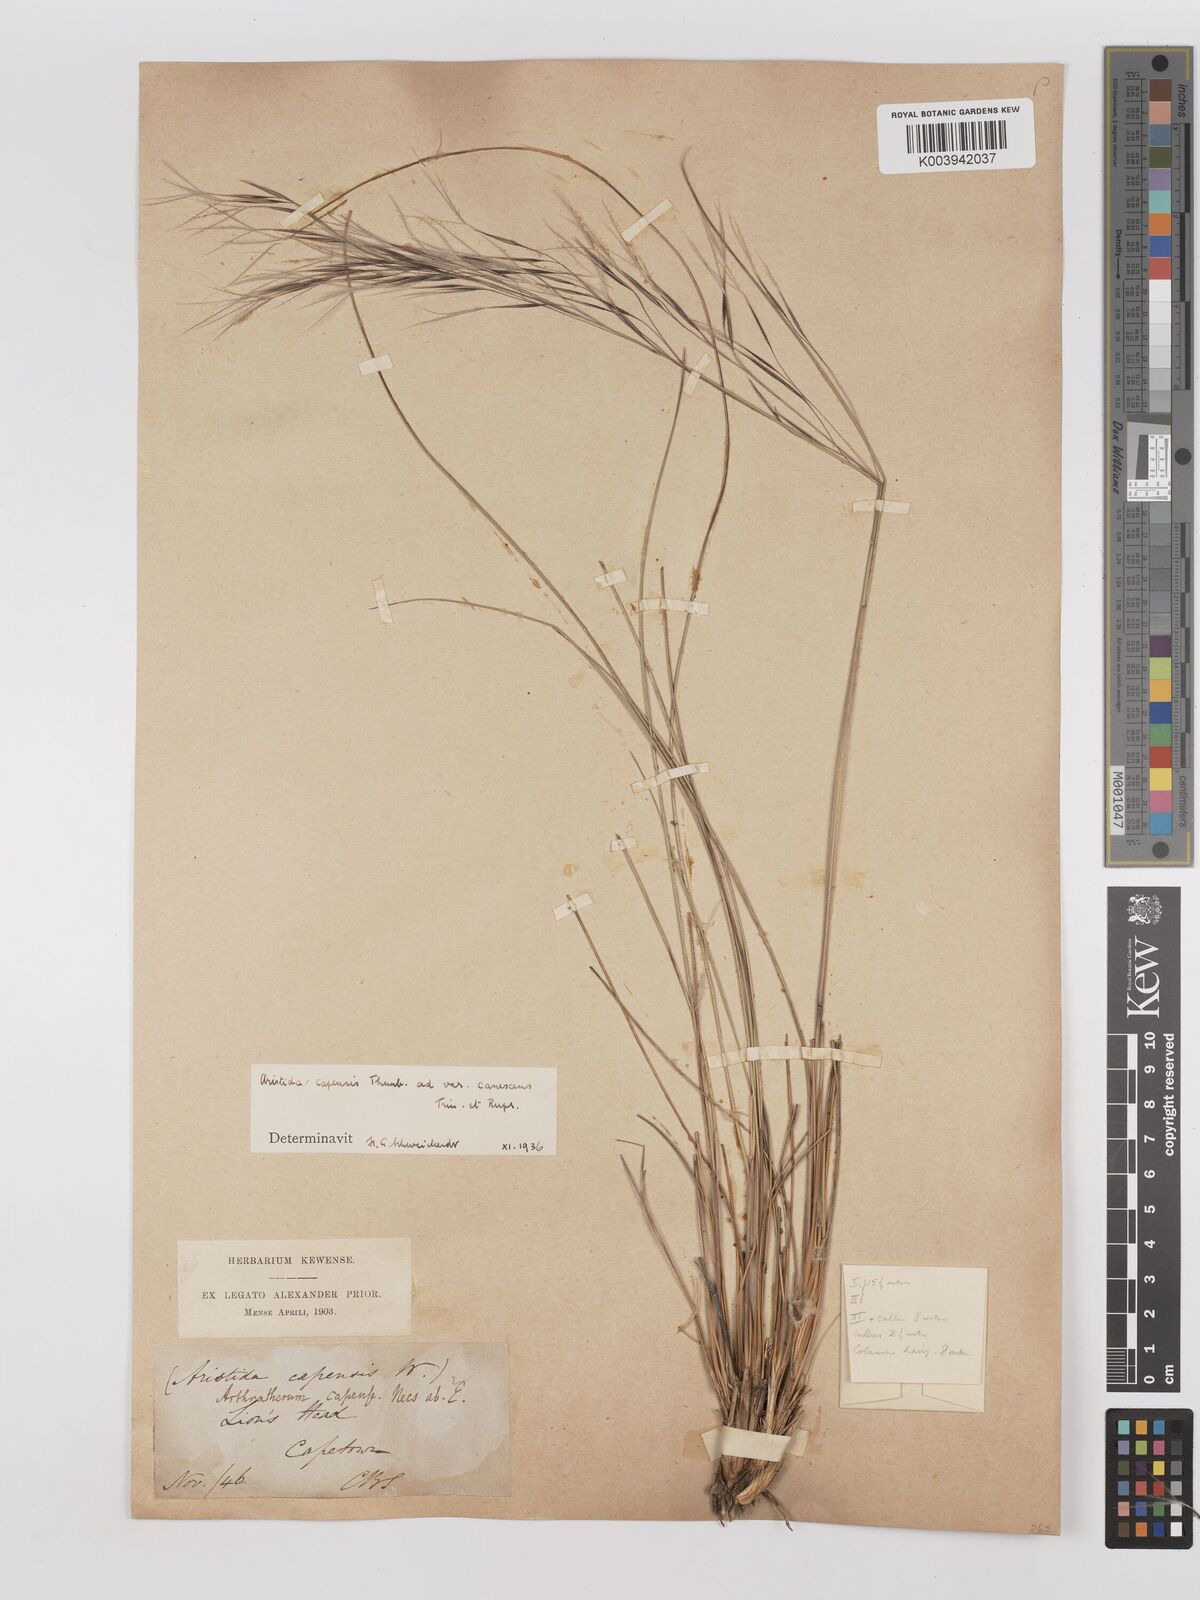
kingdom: Plantae
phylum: Tracheophyta
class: Liliopsida
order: Poales
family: Poaceae
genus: Stipagrostis
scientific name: Stipagrostis zeyheri
